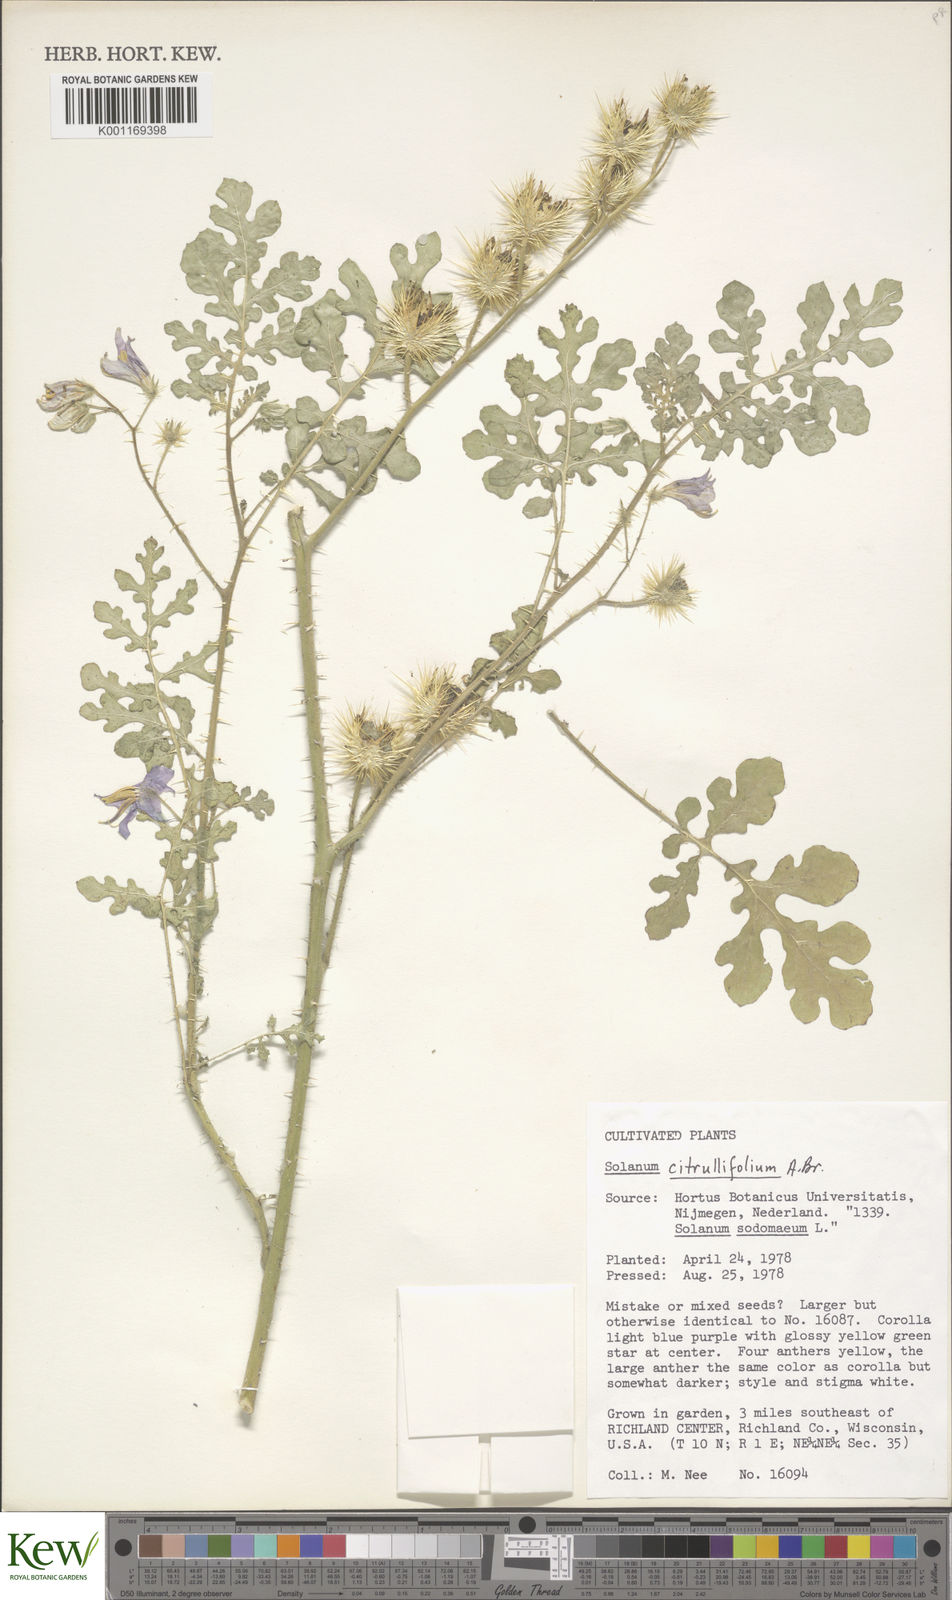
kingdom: Plantae
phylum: Tracheophyta
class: Magnoliopsida
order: Solanales
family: Solanaceae
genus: Solanum
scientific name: Solanum citrullifolium
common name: Melon-leaf nightshade
